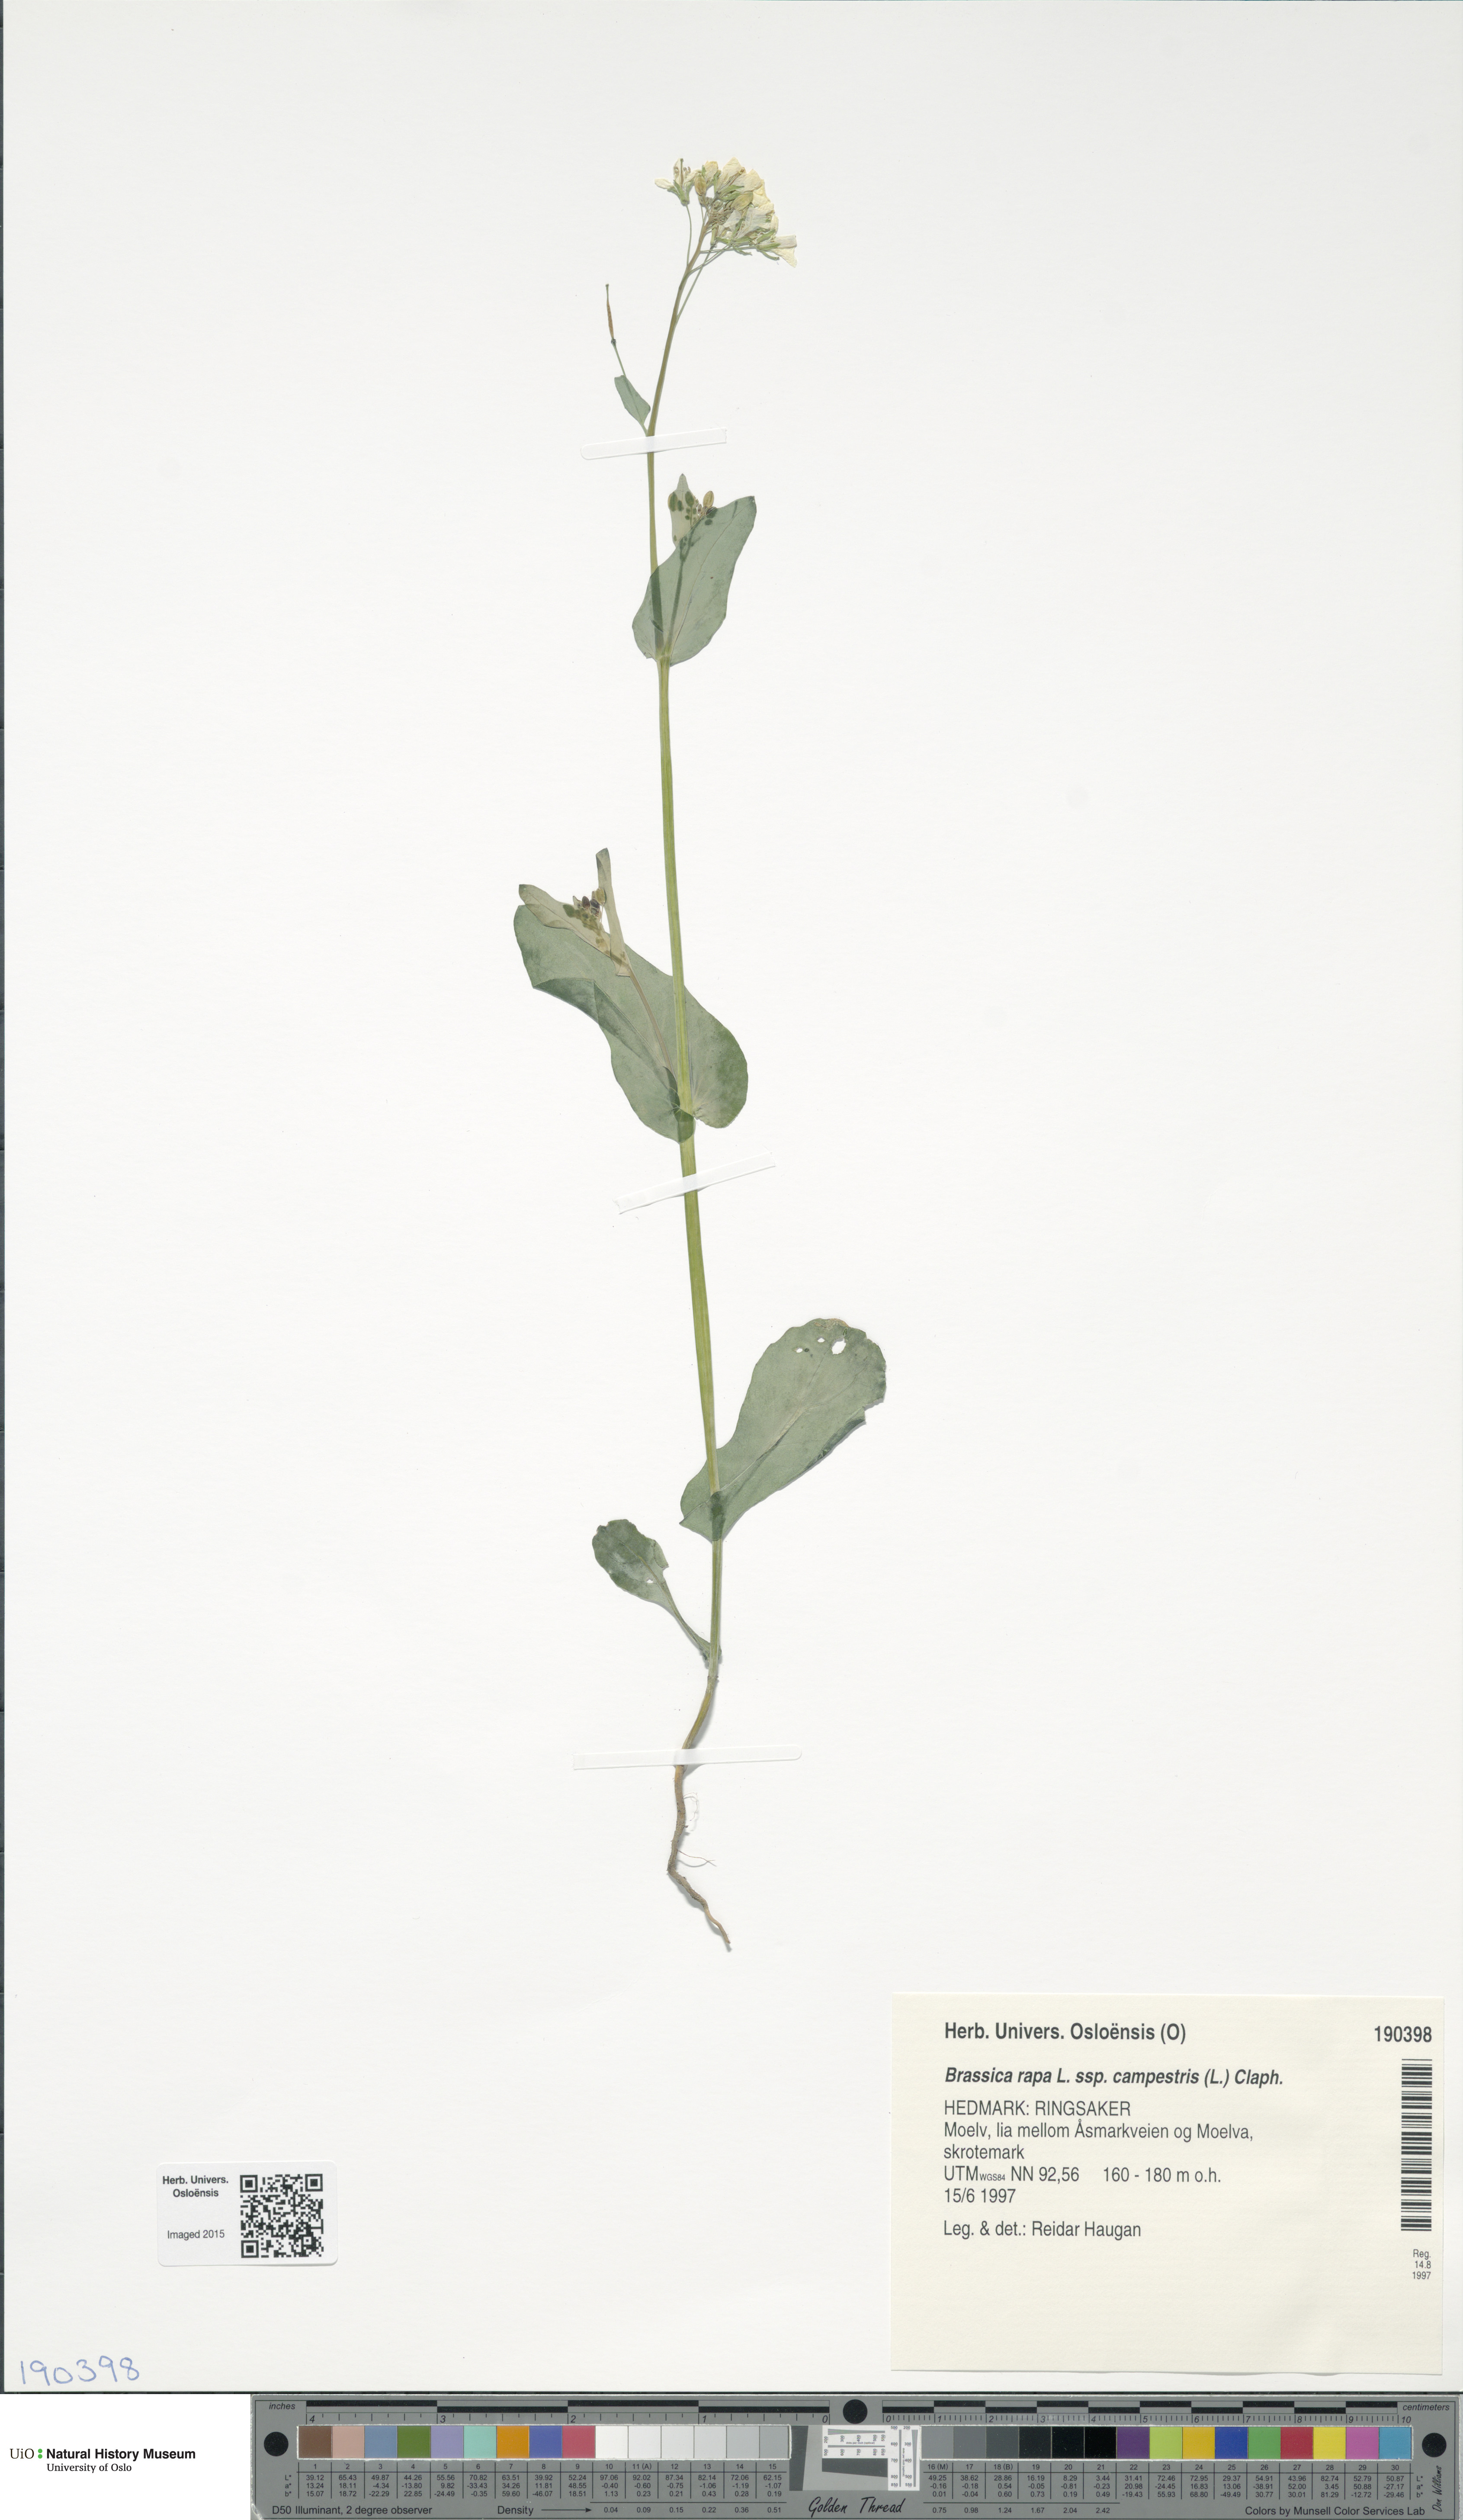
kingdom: Plantae
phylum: Tracheophyta
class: Magnoliopsida
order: Brassicales
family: Brassicaceae
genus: Brassica
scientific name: Brassica rapa
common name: Field mustard
